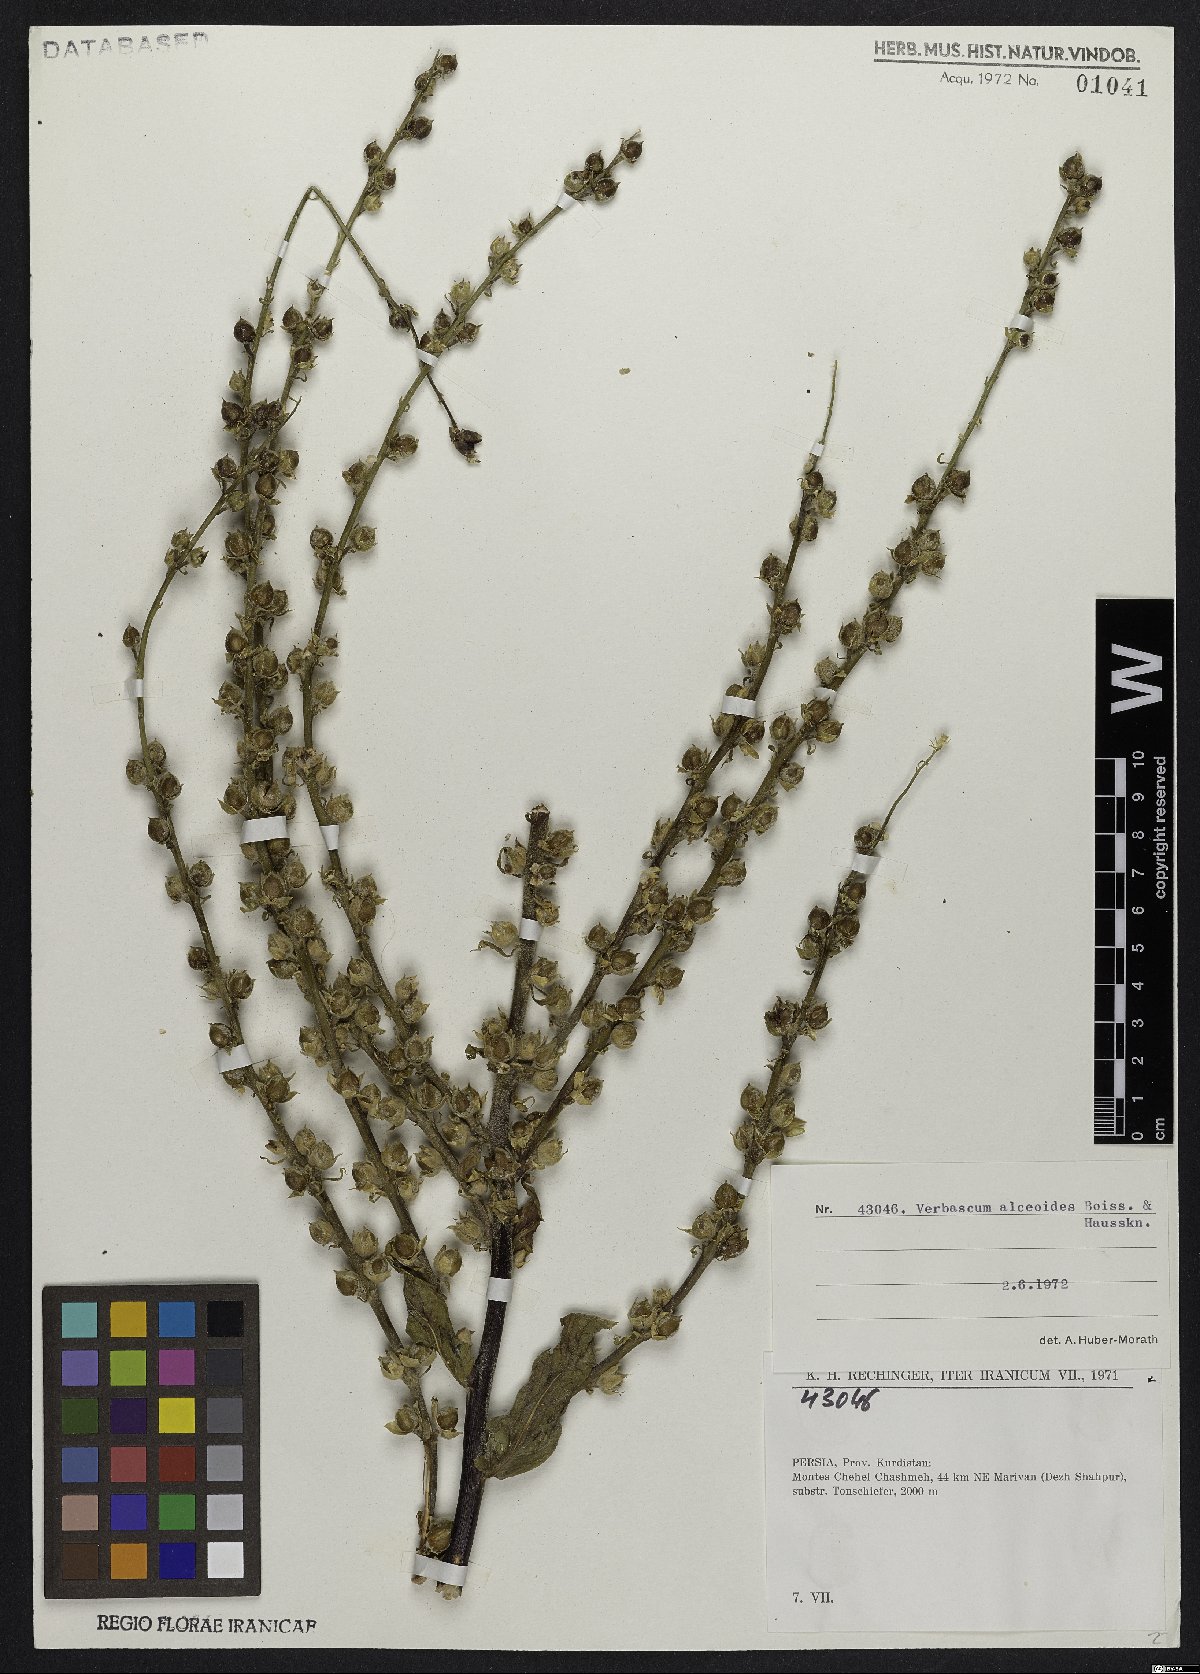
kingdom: Plantae
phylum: Tracheophyta
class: Magnoliopsida
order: Lamiales
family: Scrophulariaceae
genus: Verbascum
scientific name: Verbascum alceoides
